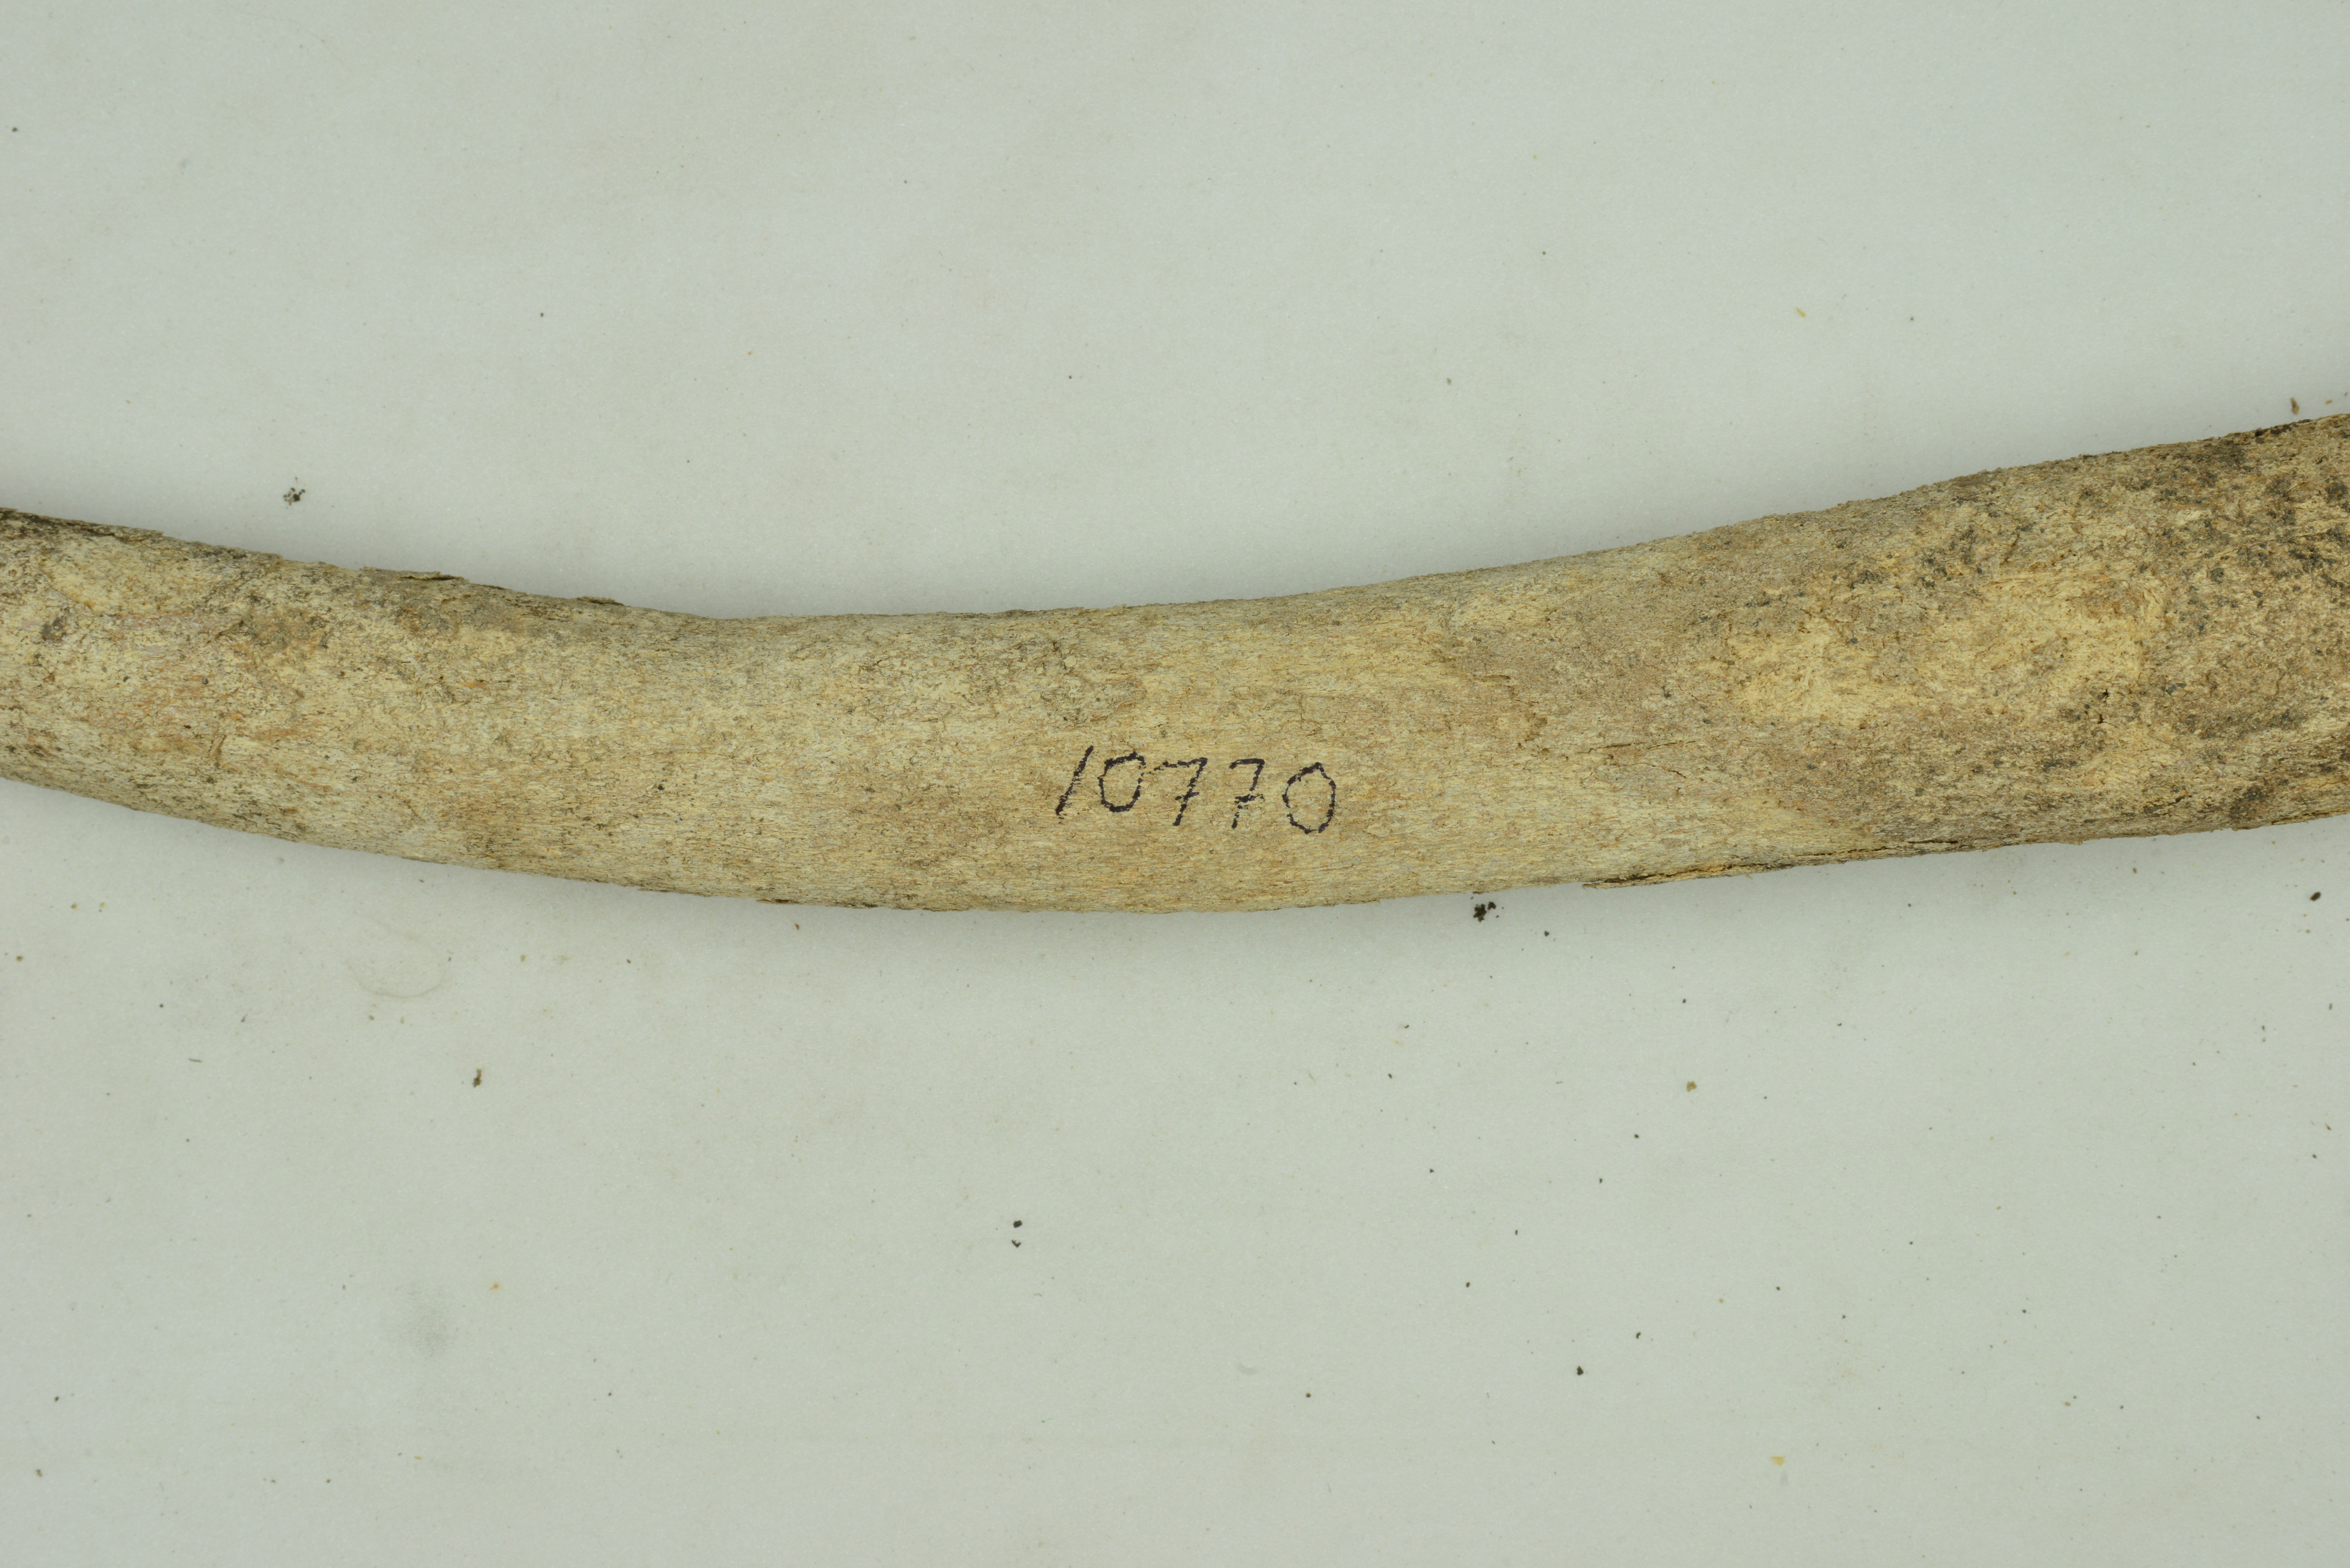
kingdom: Animalia
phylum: Chordata
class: Mammalia
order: Carnivora
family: Odobenidae
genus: Odobenus
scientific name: Odobenus rosmarus
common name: Walrus
